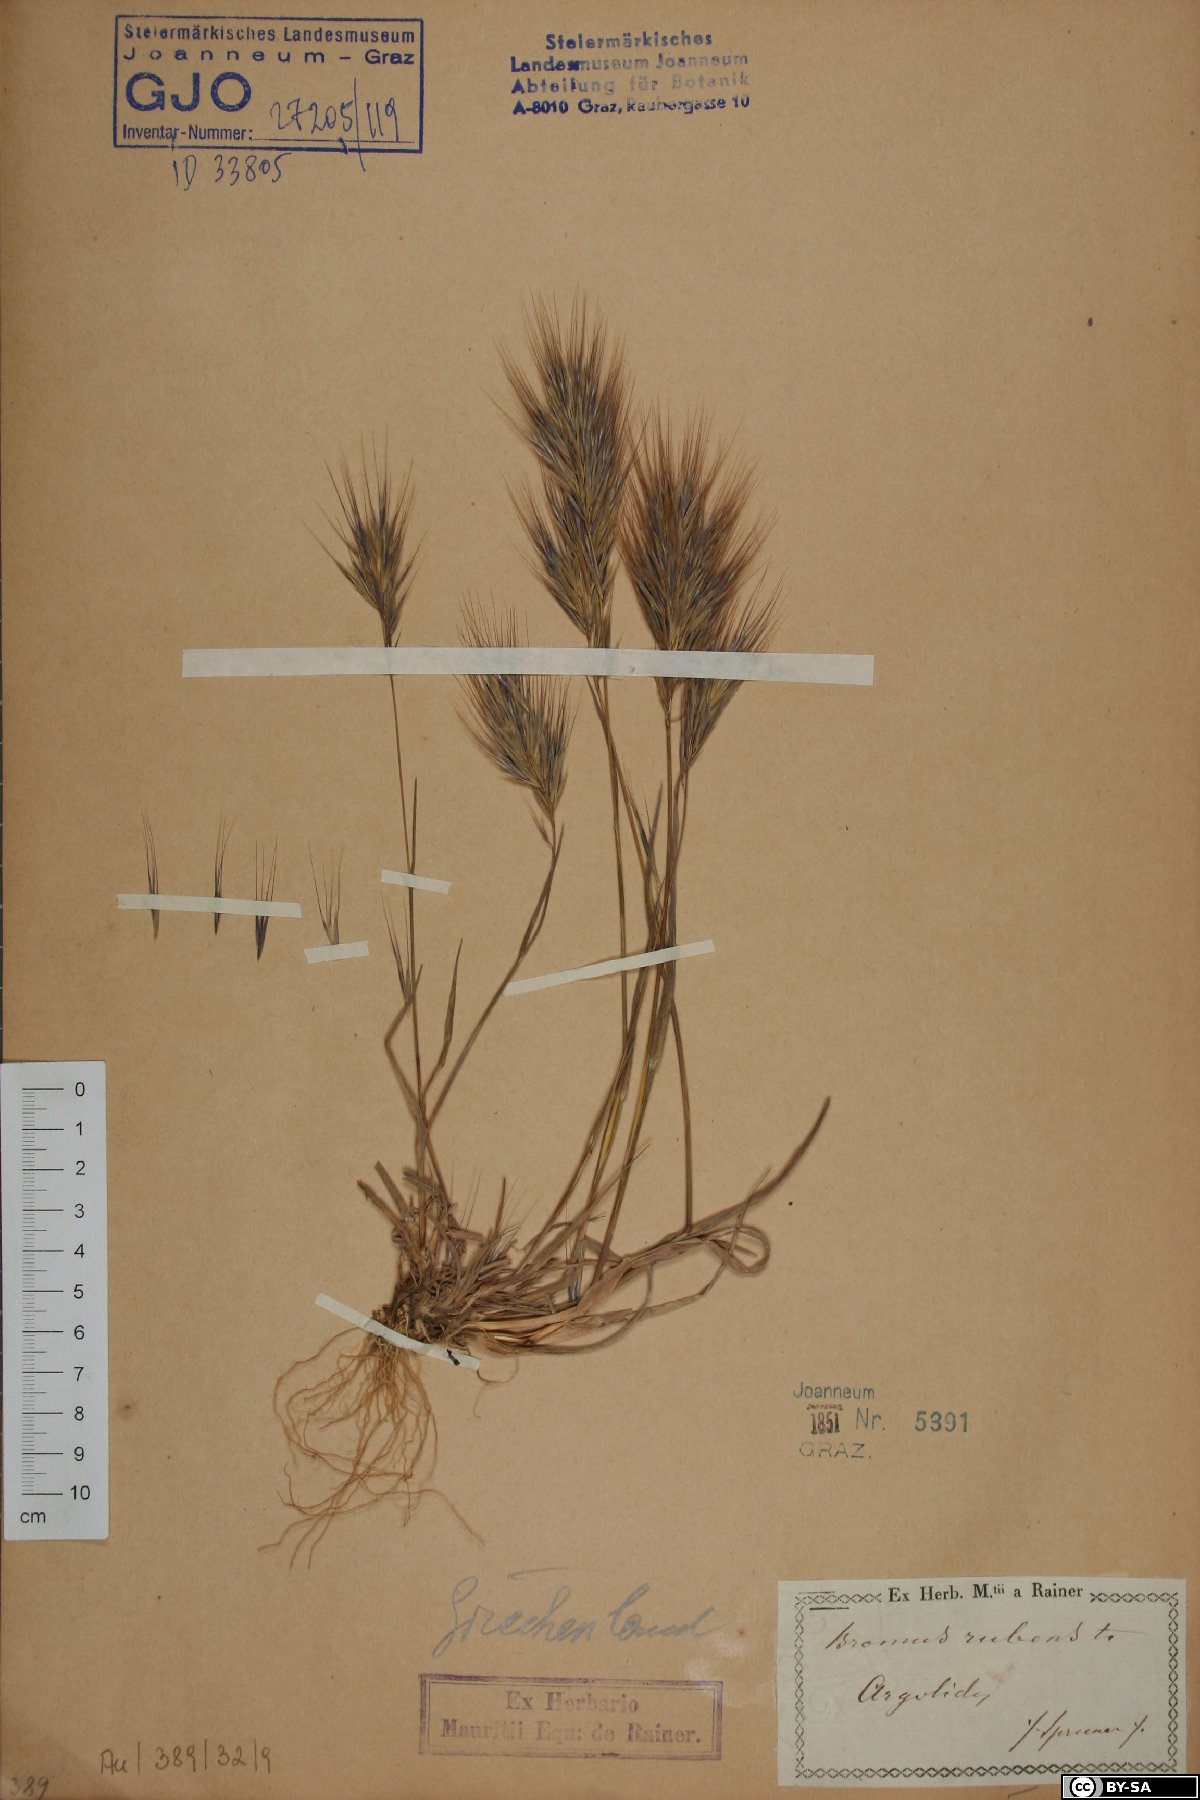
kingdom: Plantae
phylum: Tracheophyta
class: Liliopsida
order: Poales
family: Poaceae
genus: Bromus
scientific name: Bromus rubens
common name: Red brome
